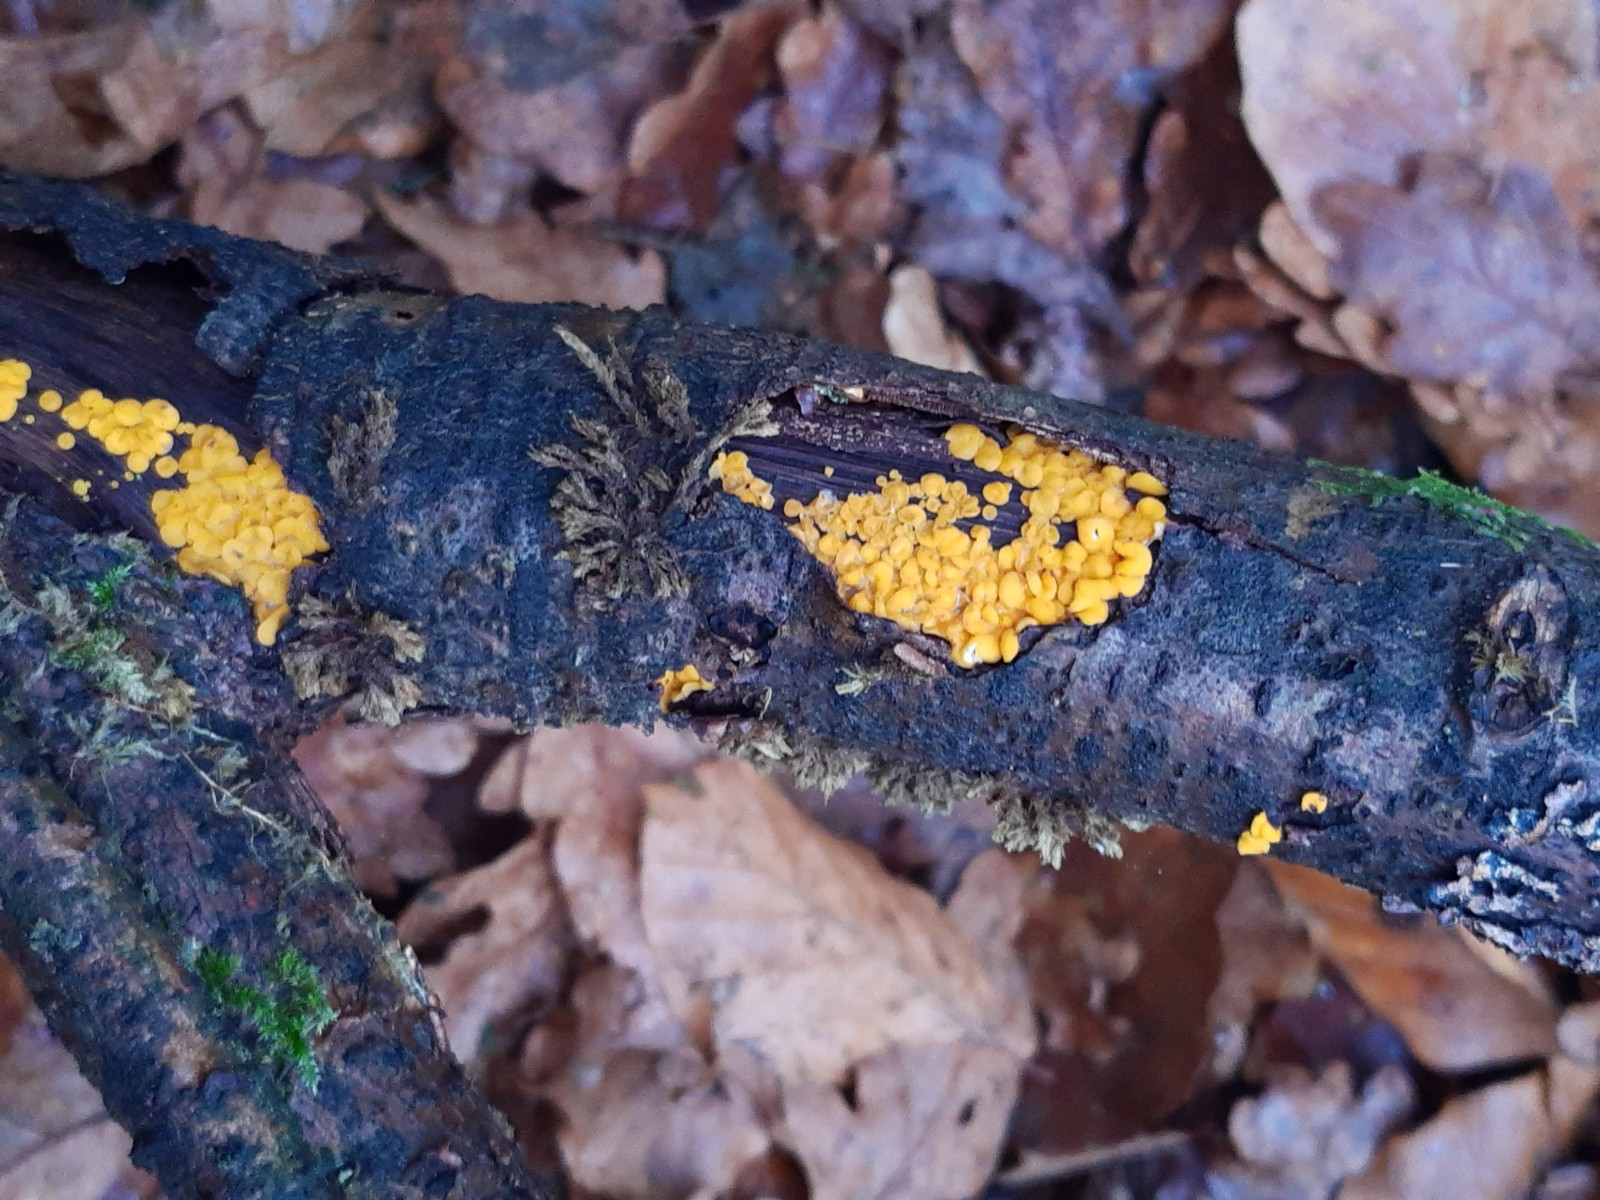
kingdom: Fungi
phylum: Ascomycota
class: Leotiomycetes
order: Helotiales
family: Pezizellaceae
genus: Calycina
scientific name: Calycina citrina
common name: almindelig gulskive
